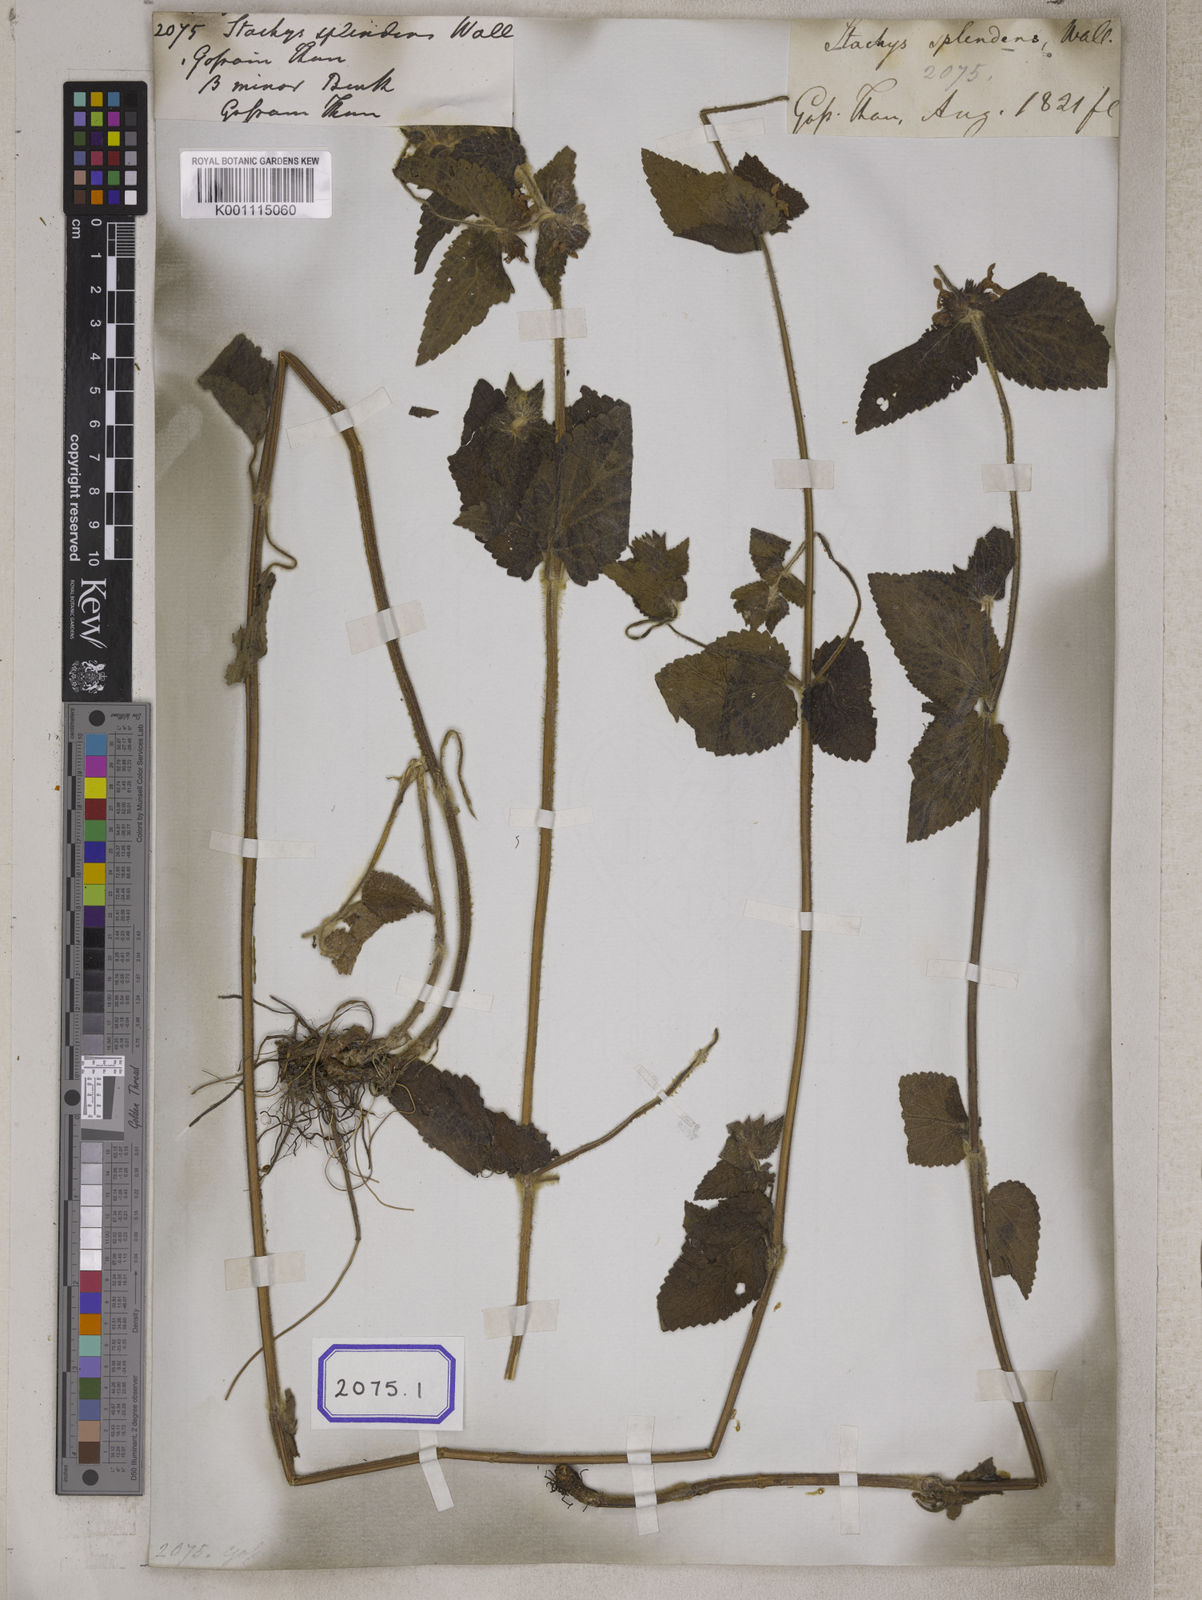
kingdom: Plantae
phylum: Tracheophyta
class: Magnoliopsida
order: Lamiales
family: Lamiaceae
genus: Stachys
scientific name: Stachys splendens
